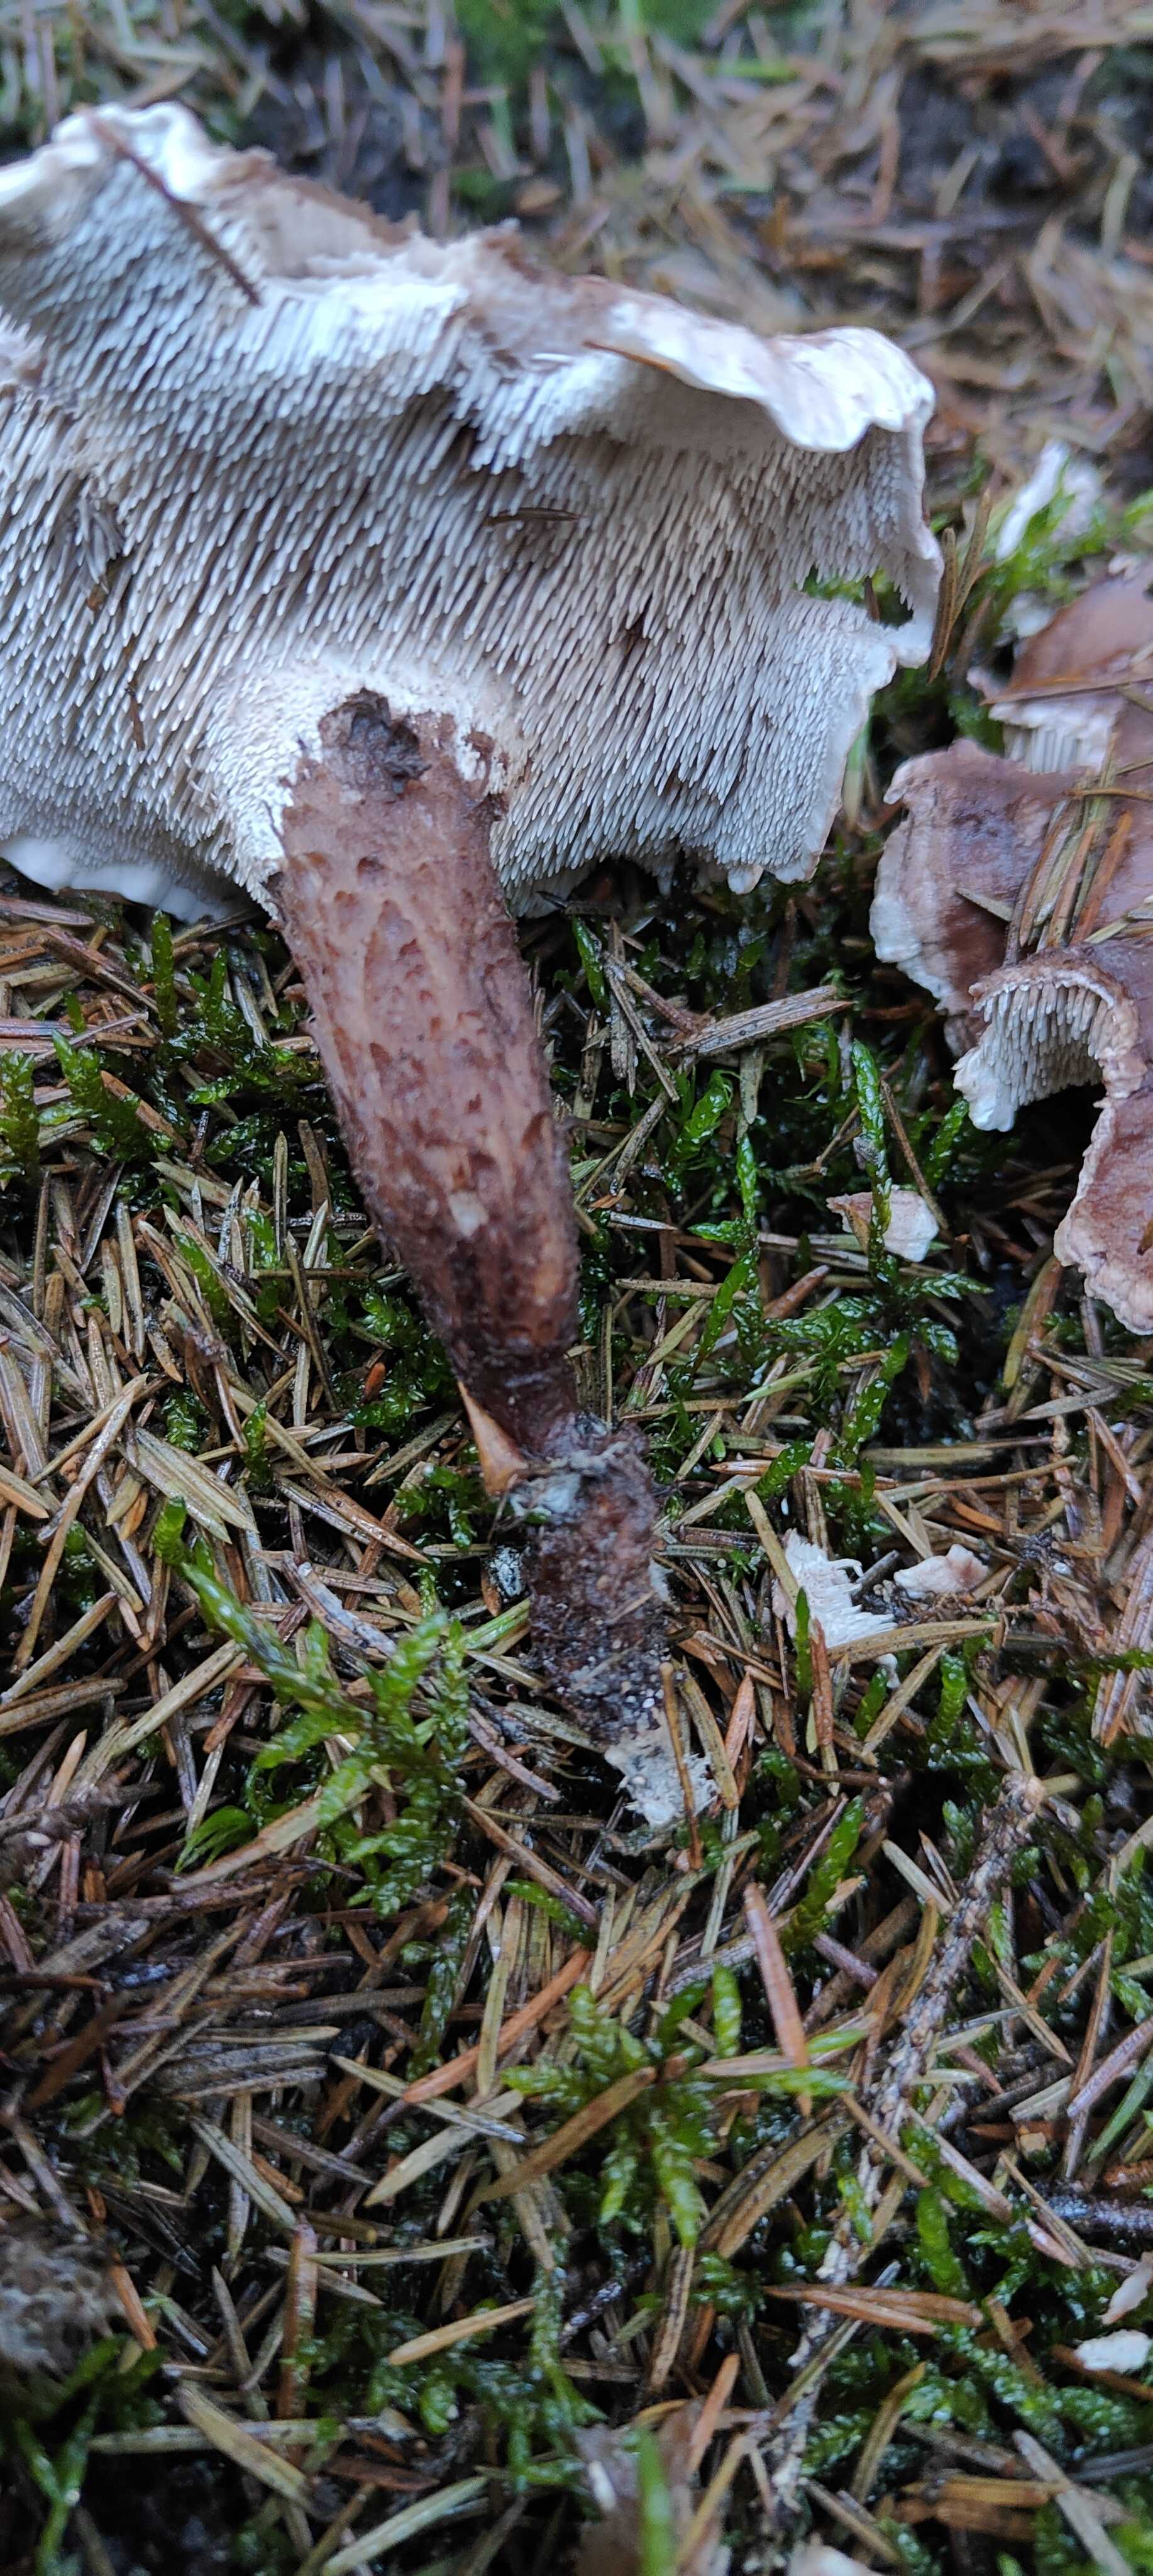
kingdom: Fungi
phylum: Basidiomycota
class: Agaricomycetes
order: Thelephorales
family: Thelephoraceae
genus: Phellodon
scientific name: Phellodon violascens
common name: violetbrun duftpigsvamp
